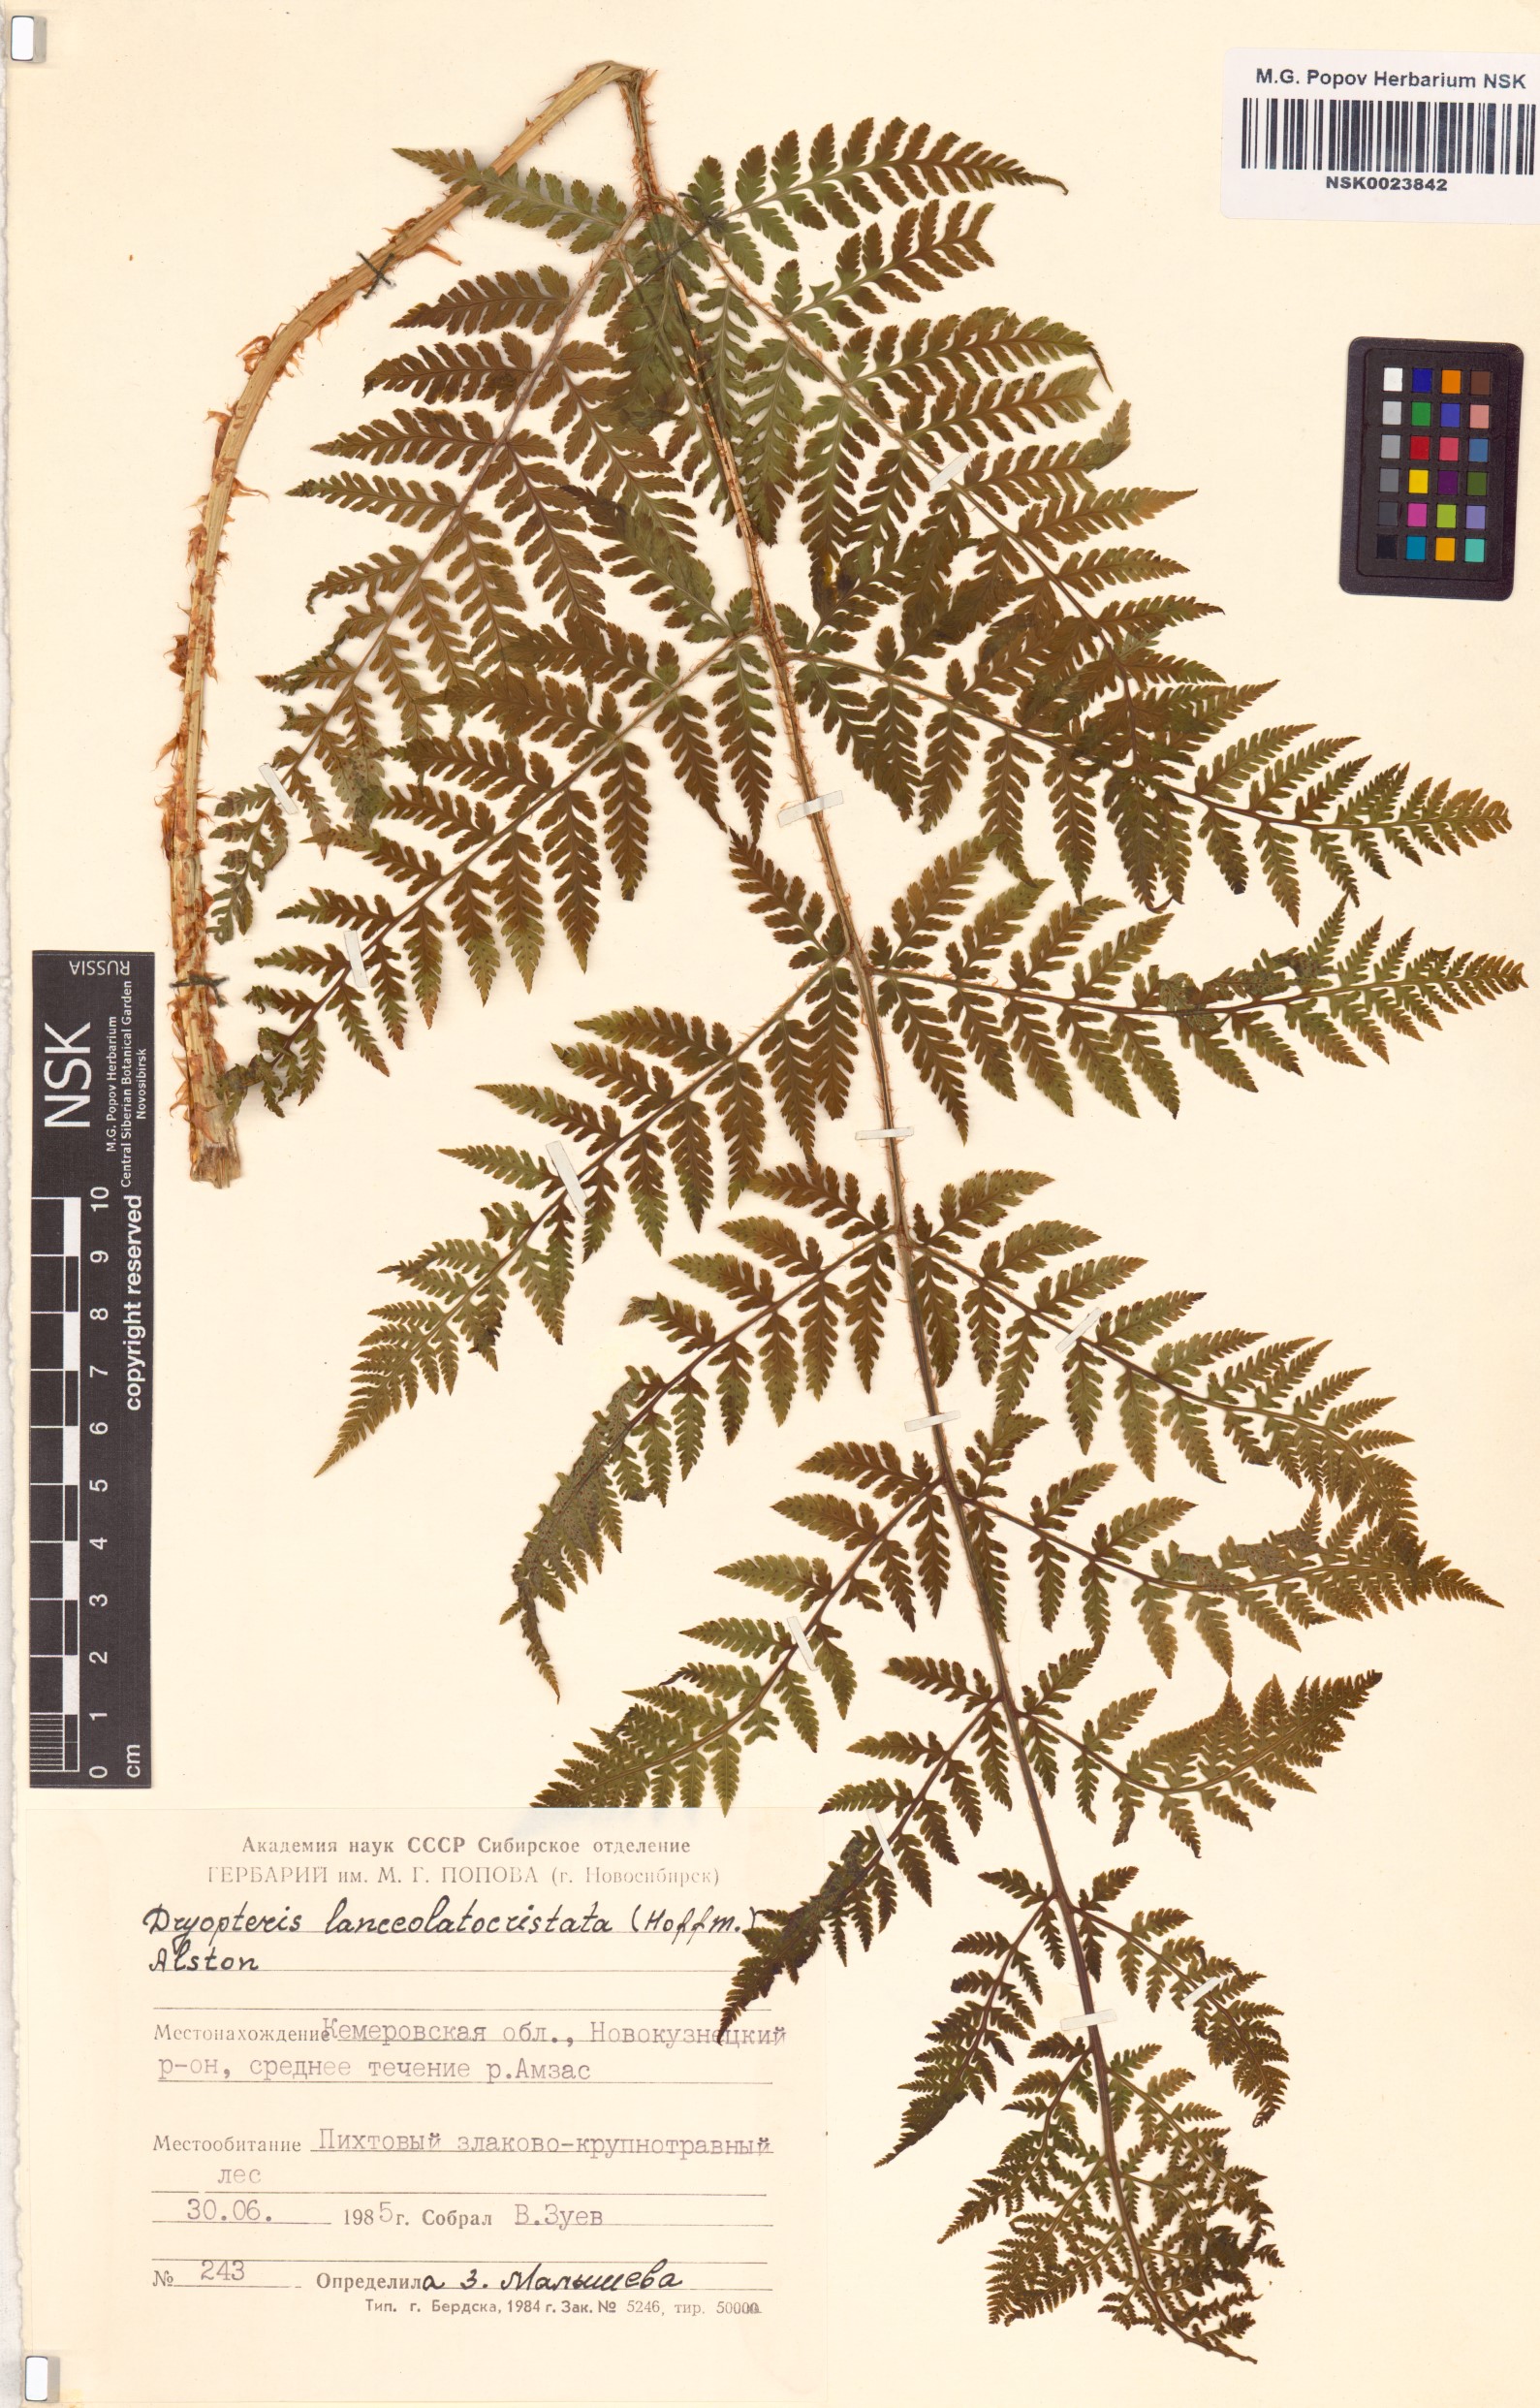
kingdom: Plantae
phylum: Tracheophyta
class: Polypodiopsida
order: Polypodiales
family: Dryopteridaceae
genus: Dryopteris
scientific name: Dryopteris carthusiana
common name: Narrow buckler-fern
